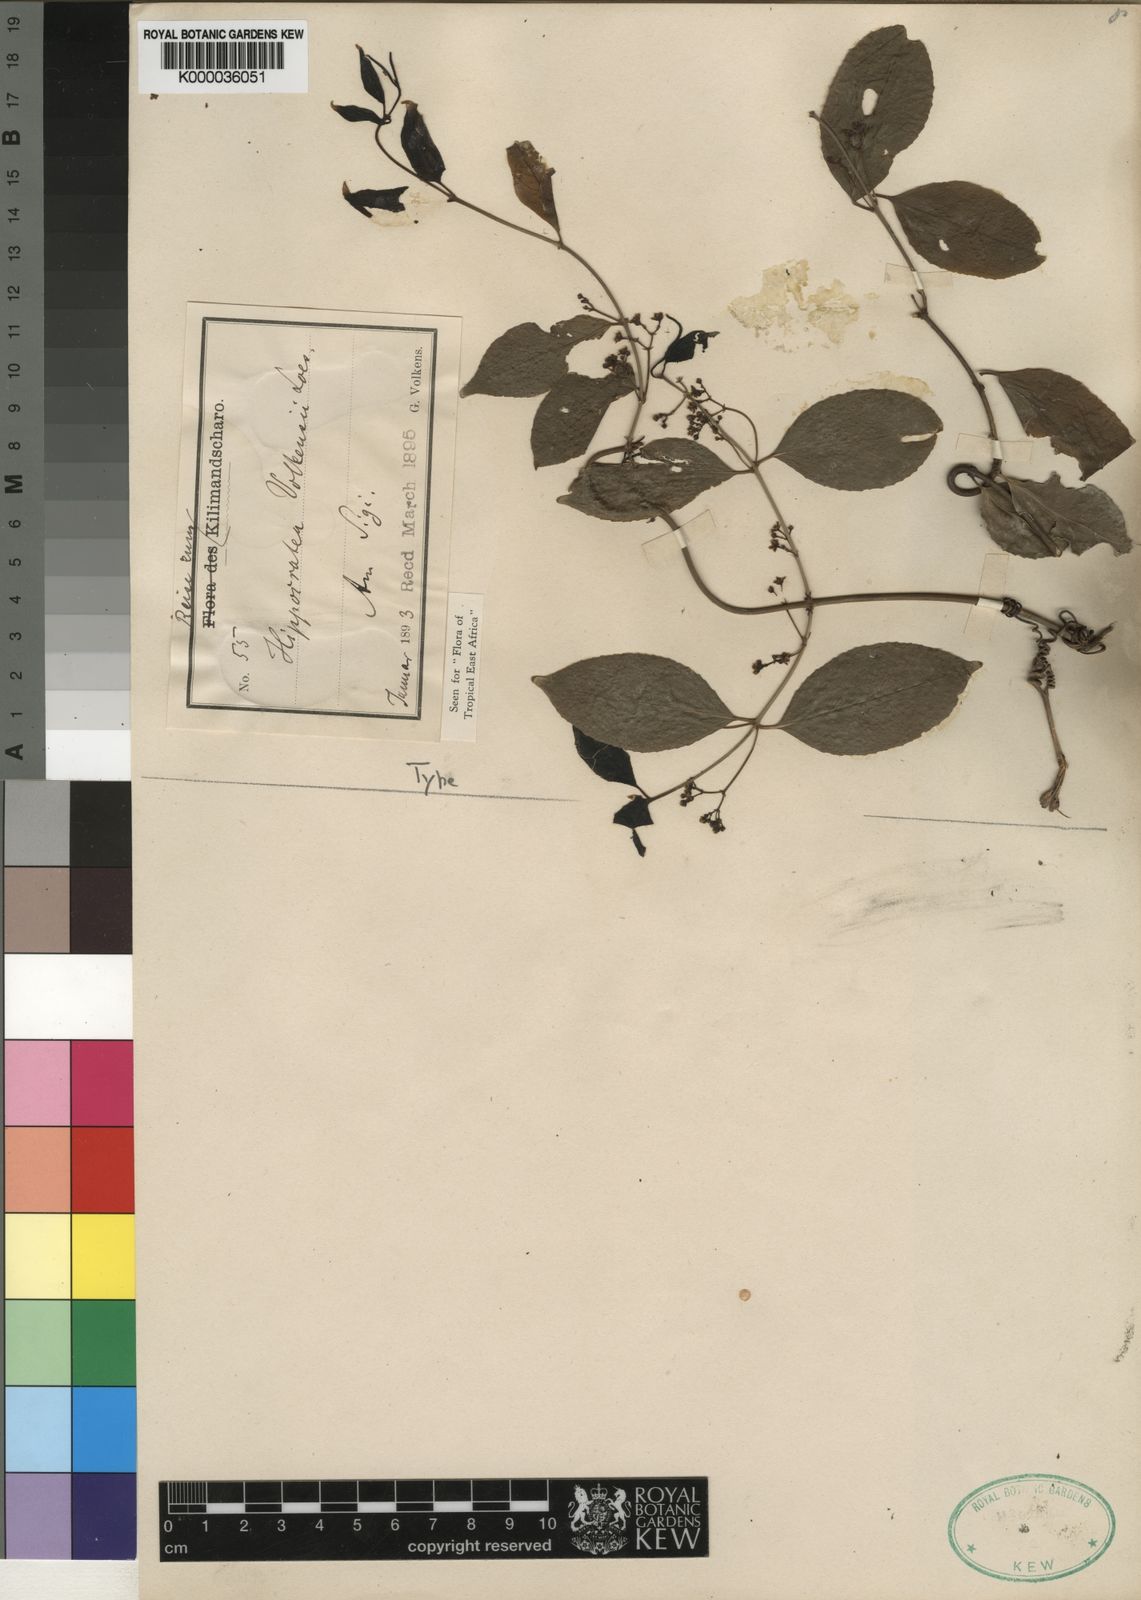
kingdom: Plantae
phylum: Tracheophyta
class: Magnoliopsida
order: Celastrales
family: Celastraceae
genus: Pristimera
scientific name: Pristimera
